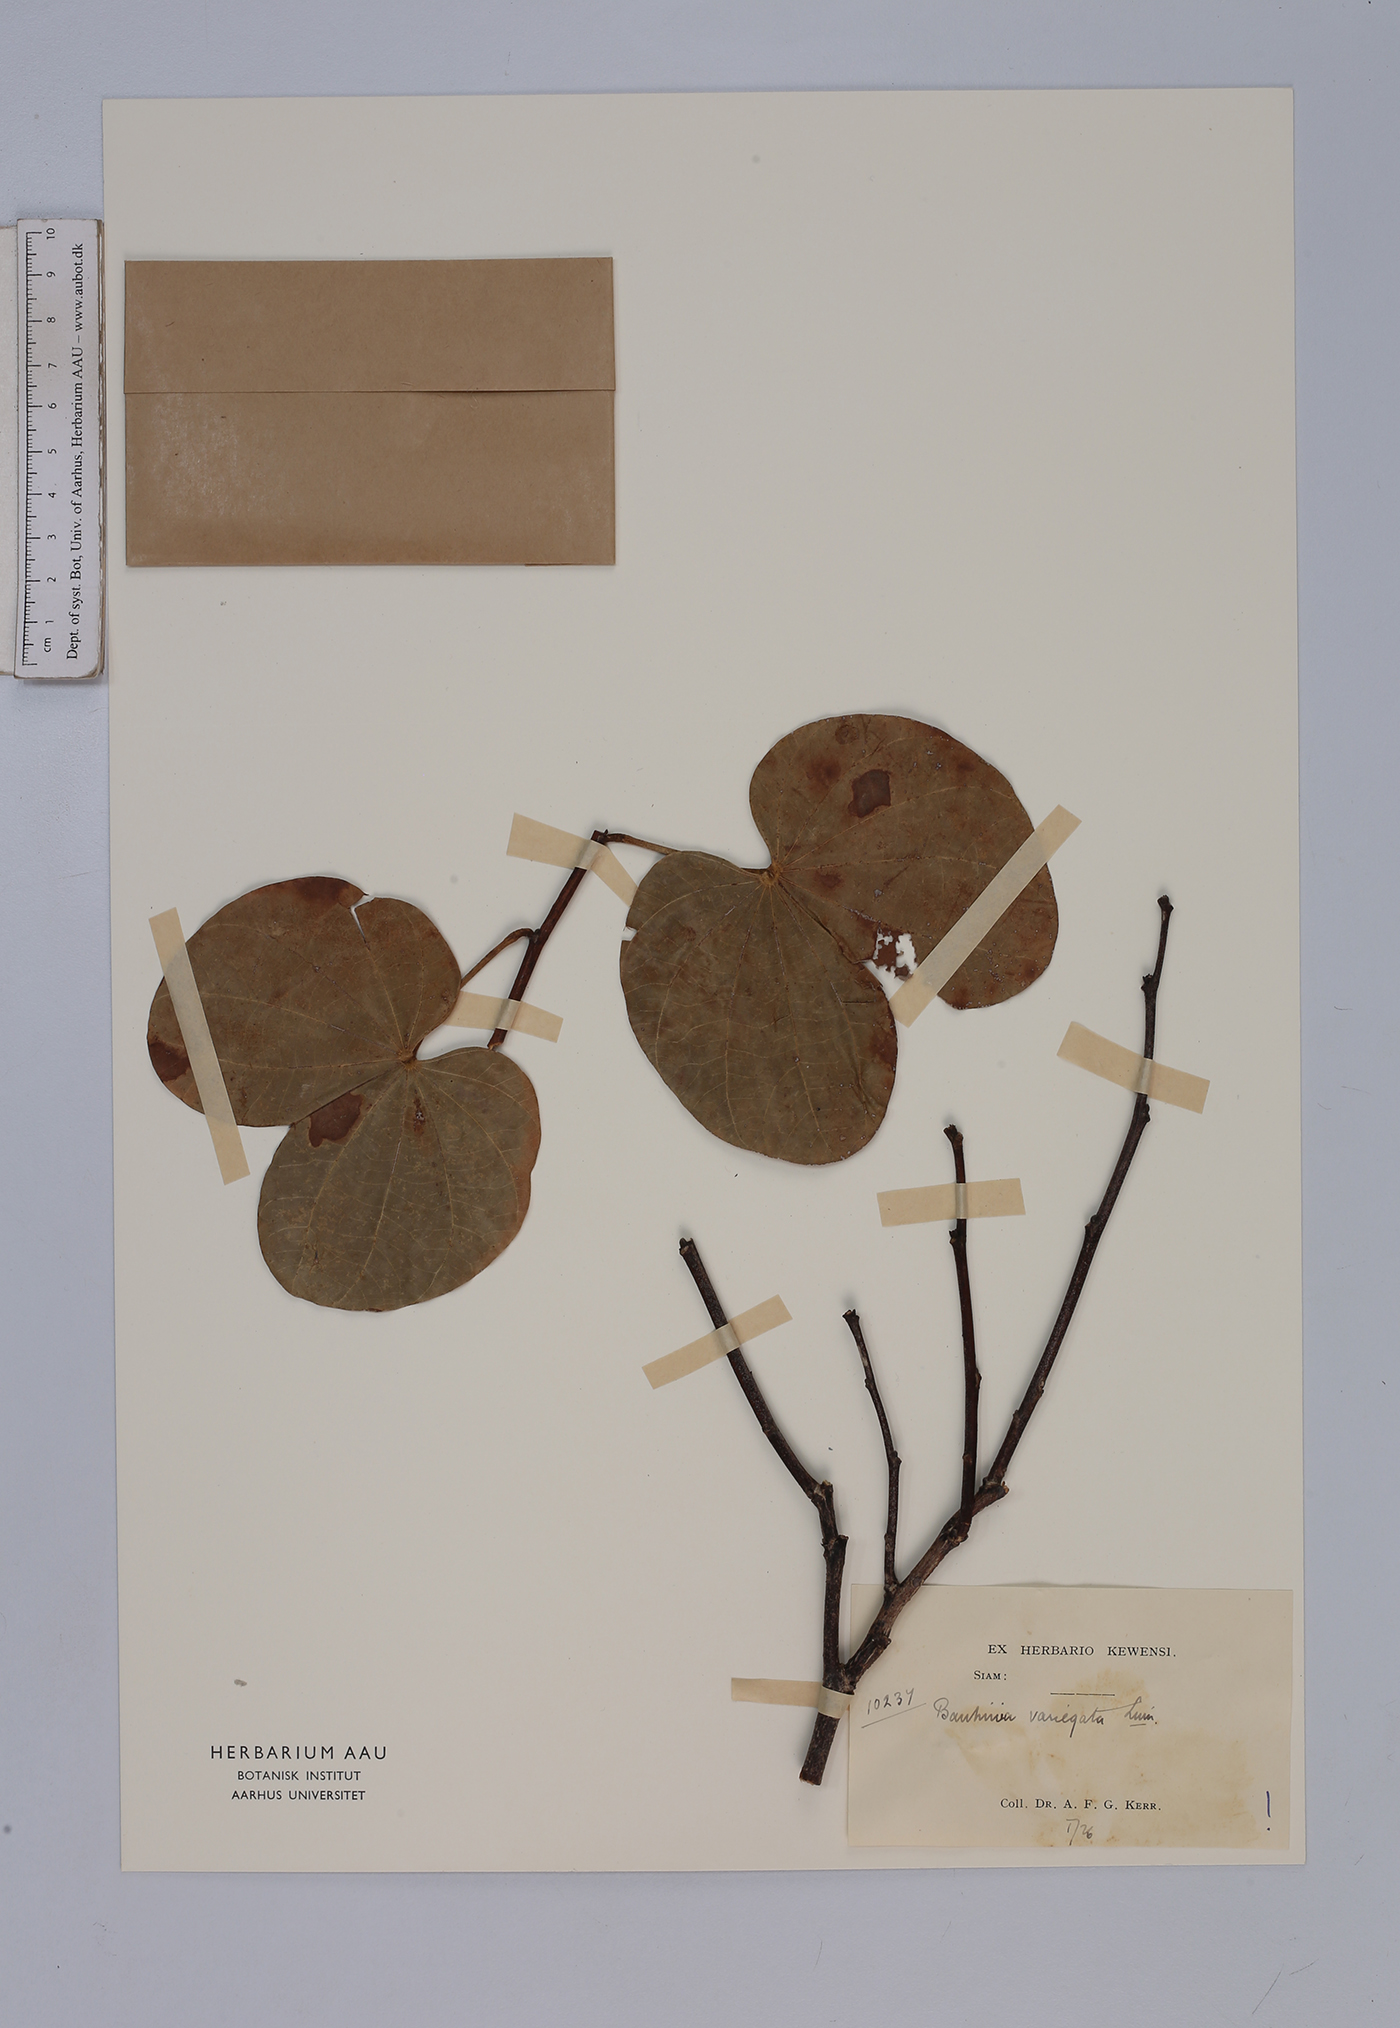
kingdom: Plantae
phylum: Tracheophyta
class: Magnoliopsida
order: Fabales
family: Fabaceae
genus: Bauhinia
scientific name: Bauhinia variegata
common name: Mountain ebony
